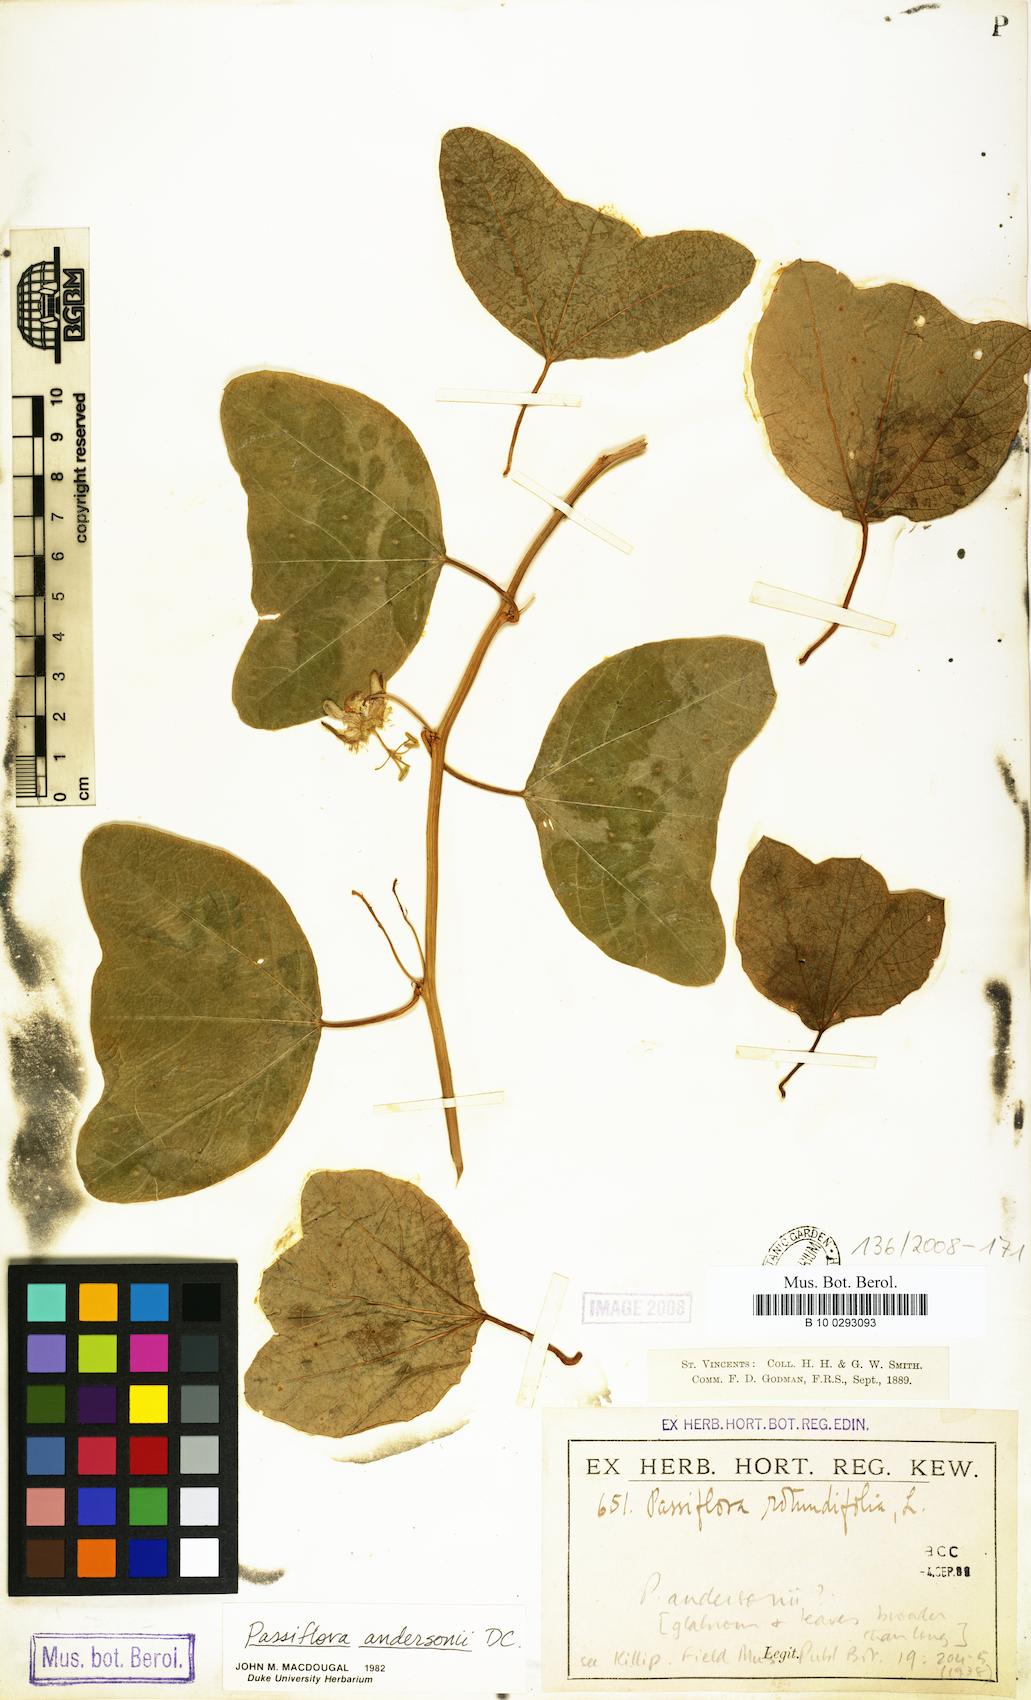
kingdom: Plantae
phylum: Tracheophyta
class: Magnoliopsida
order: Malpighiales
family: Passifloraceae
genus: Passiflora
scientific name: Passiflora andersonii
